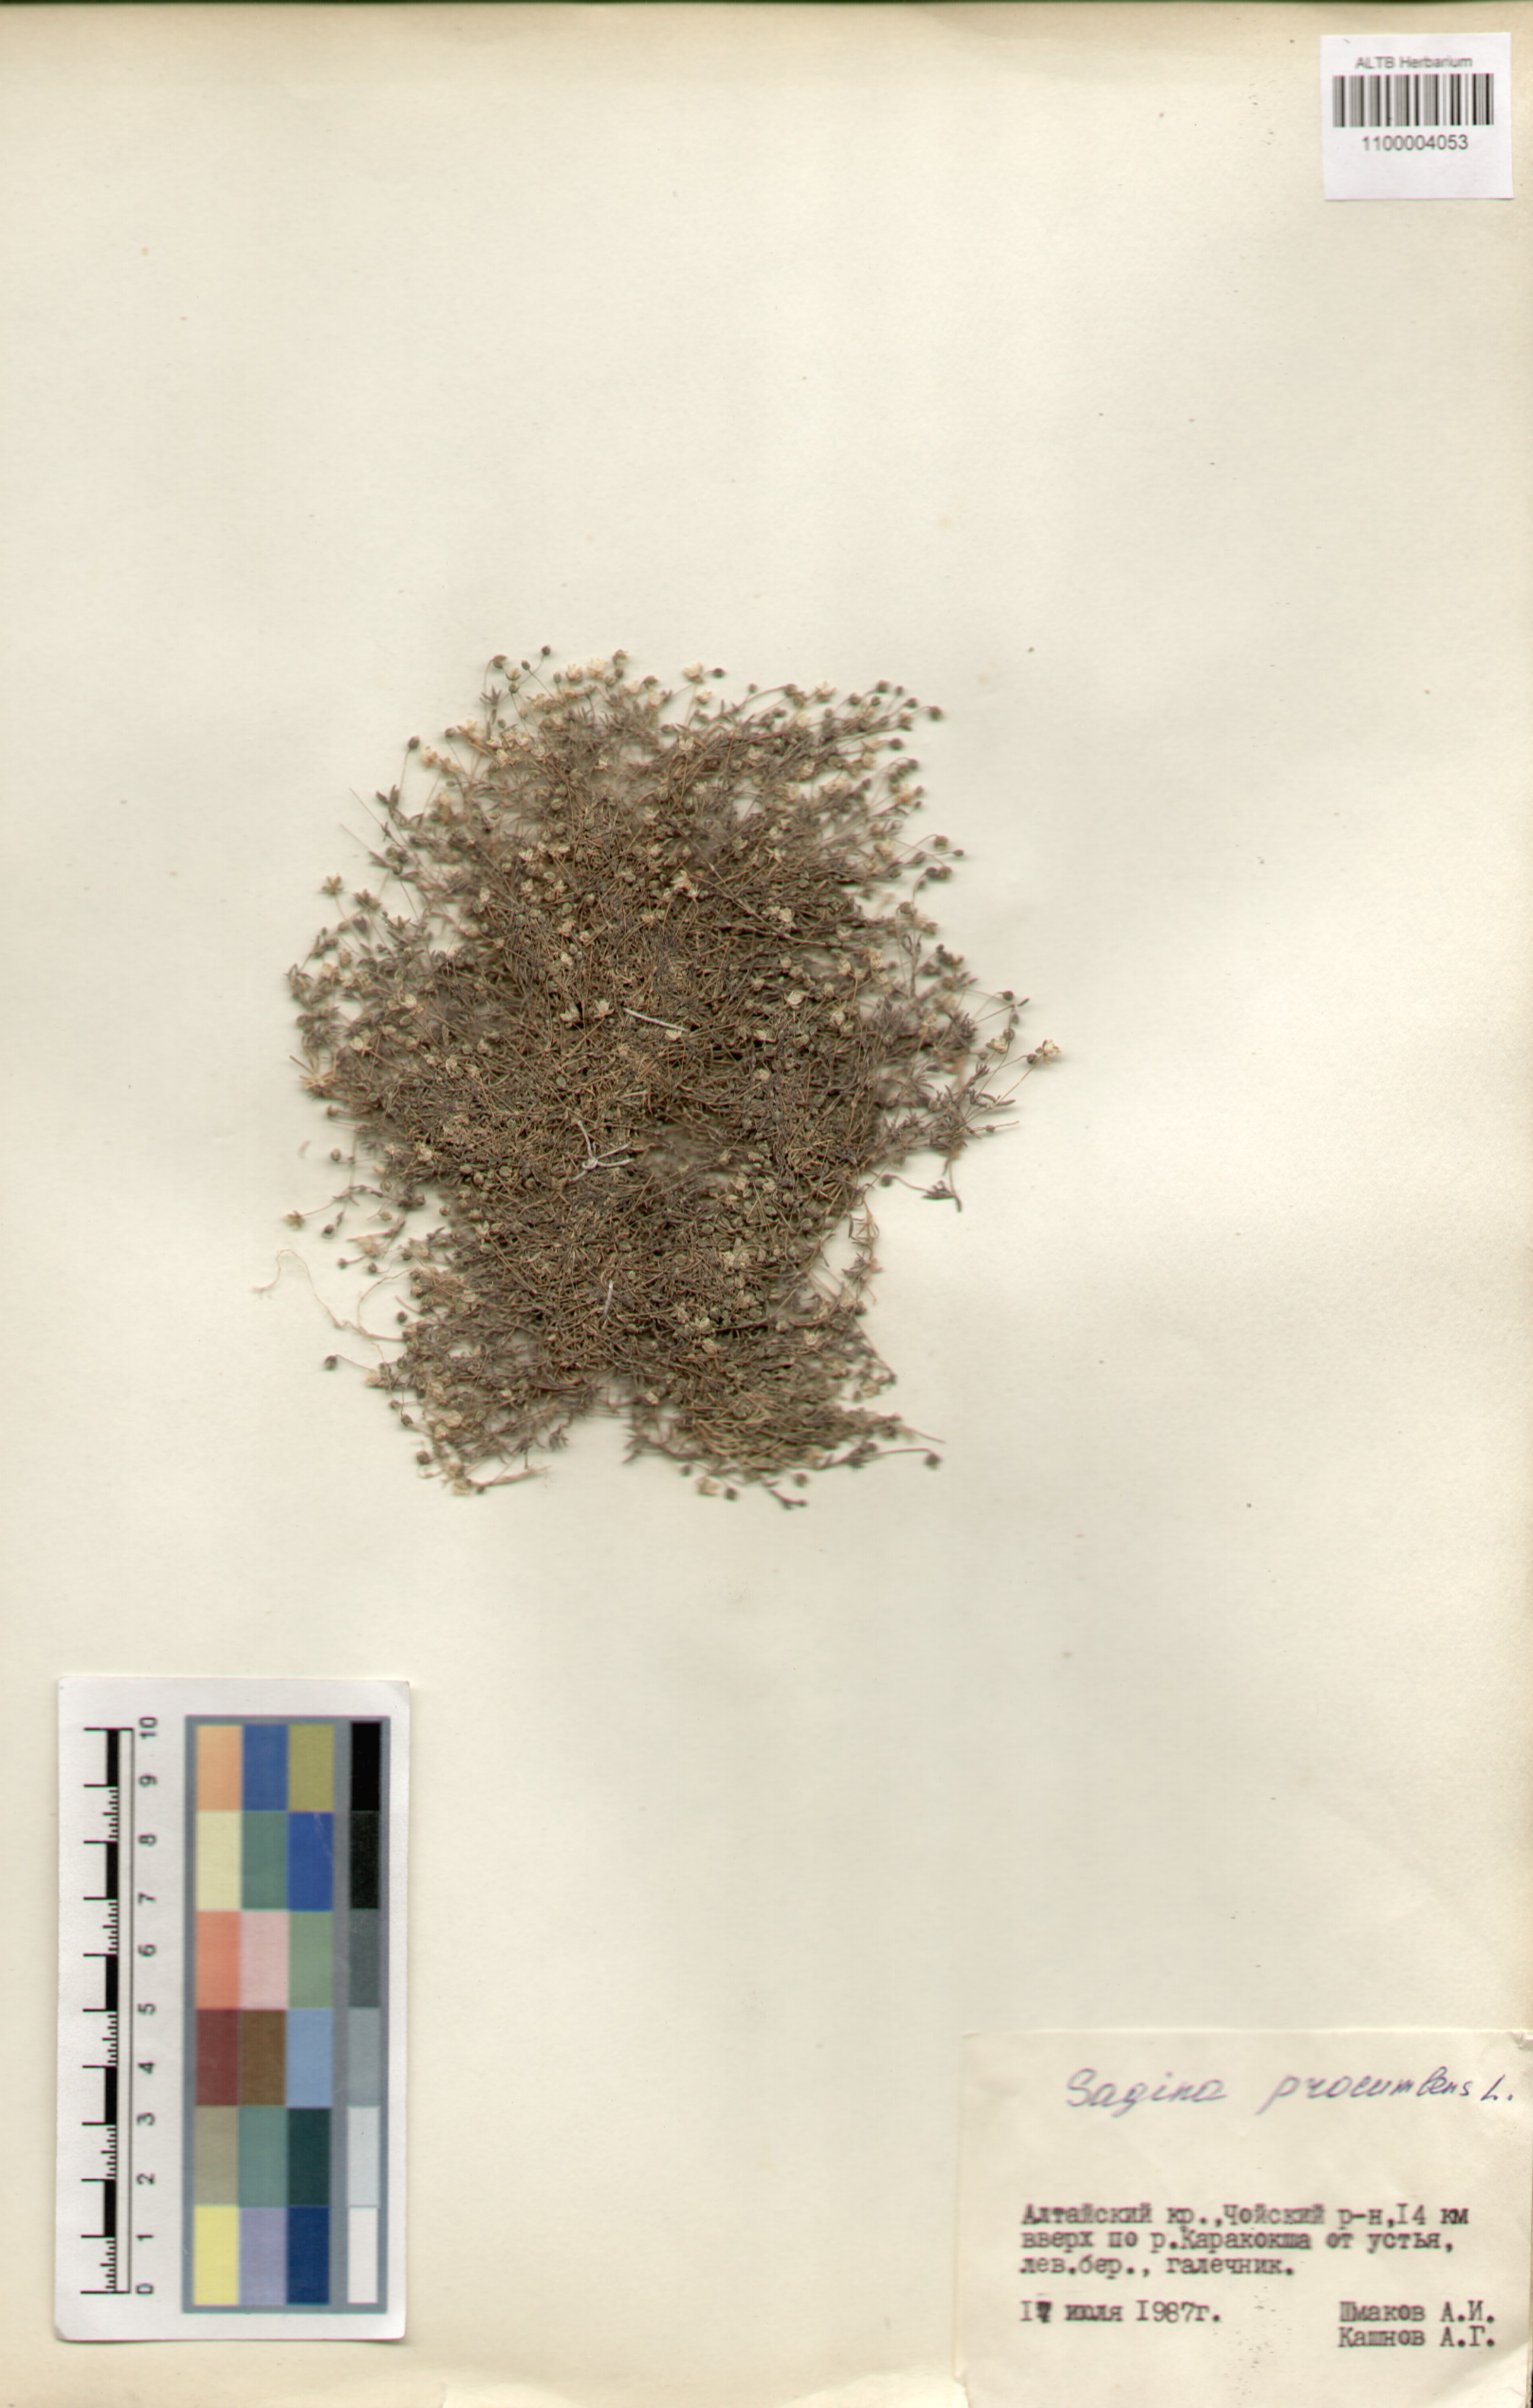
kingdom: Plantae
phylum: Tracheophyta
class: Magnoliopsida
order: Caryophyllales
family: Caryophyllaceae
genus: Sagina
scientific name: Sagina procumbens
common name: Procumbent pearlwort
